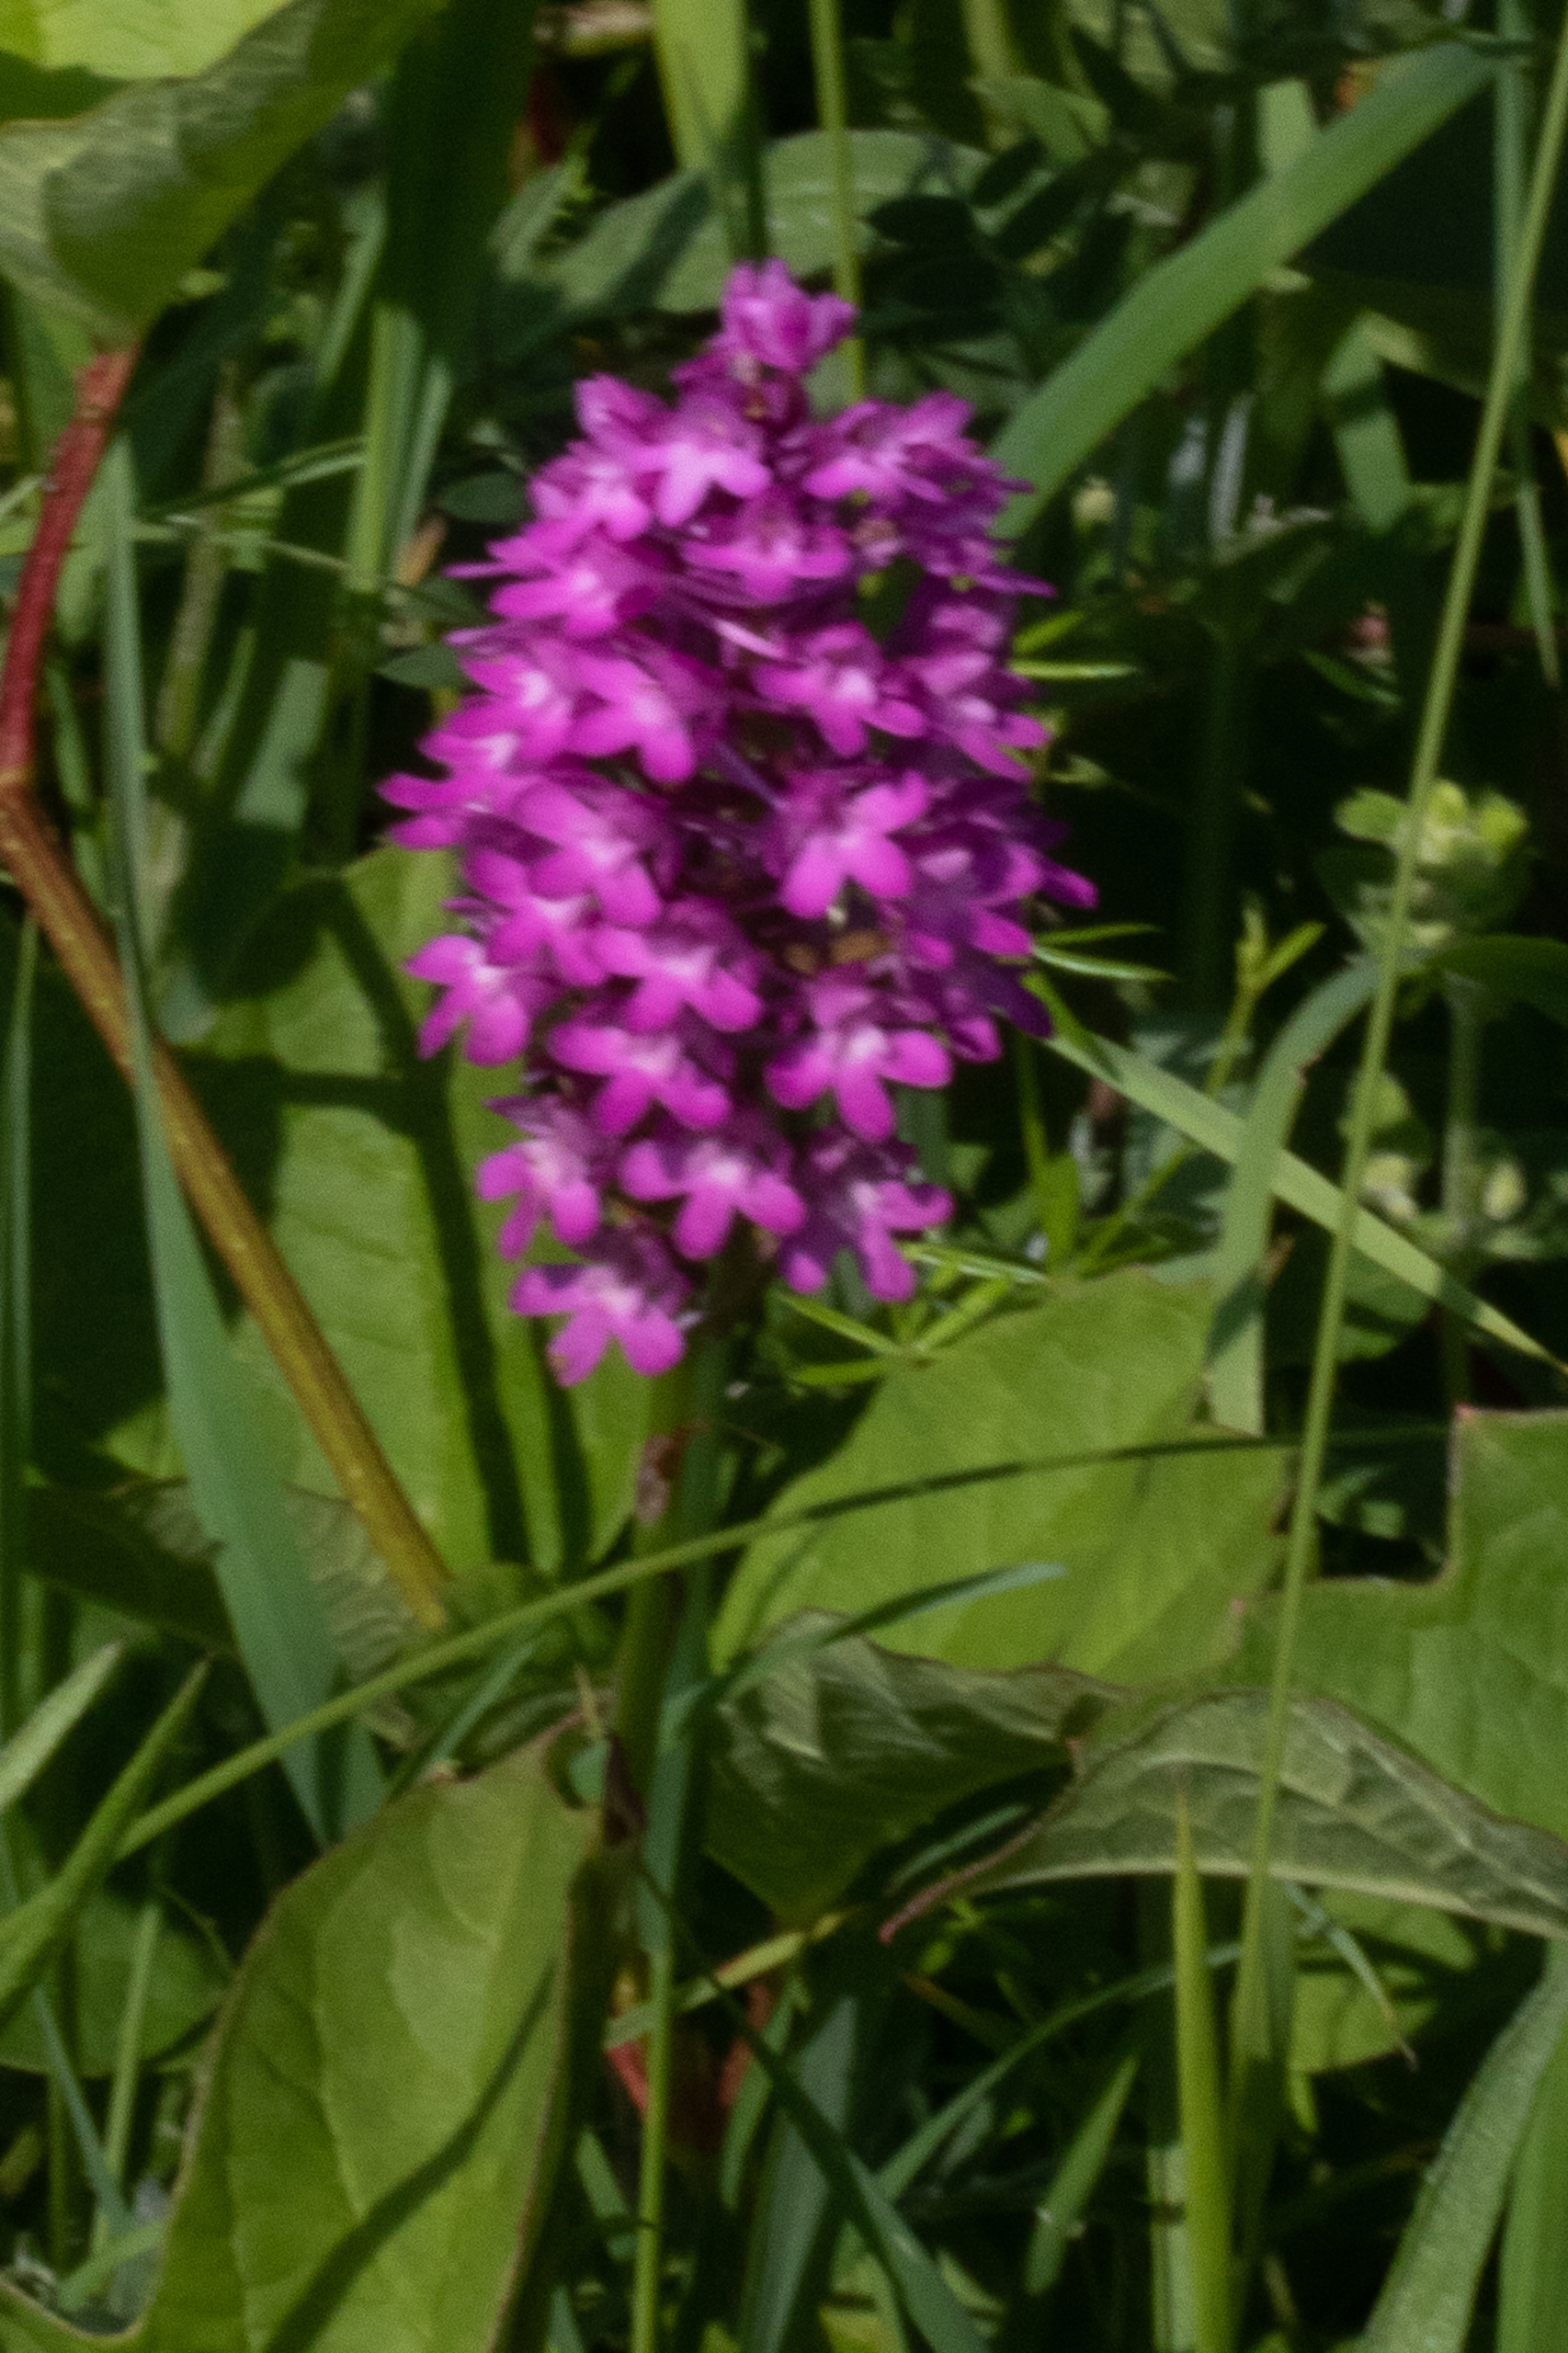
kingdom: Plantae
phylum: Tracheophyta
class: Liliopsida
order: Asparagales
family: Orchidaceae
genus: Anacamptis
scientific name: Anacamptis pyramidalis
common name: Horndrager
